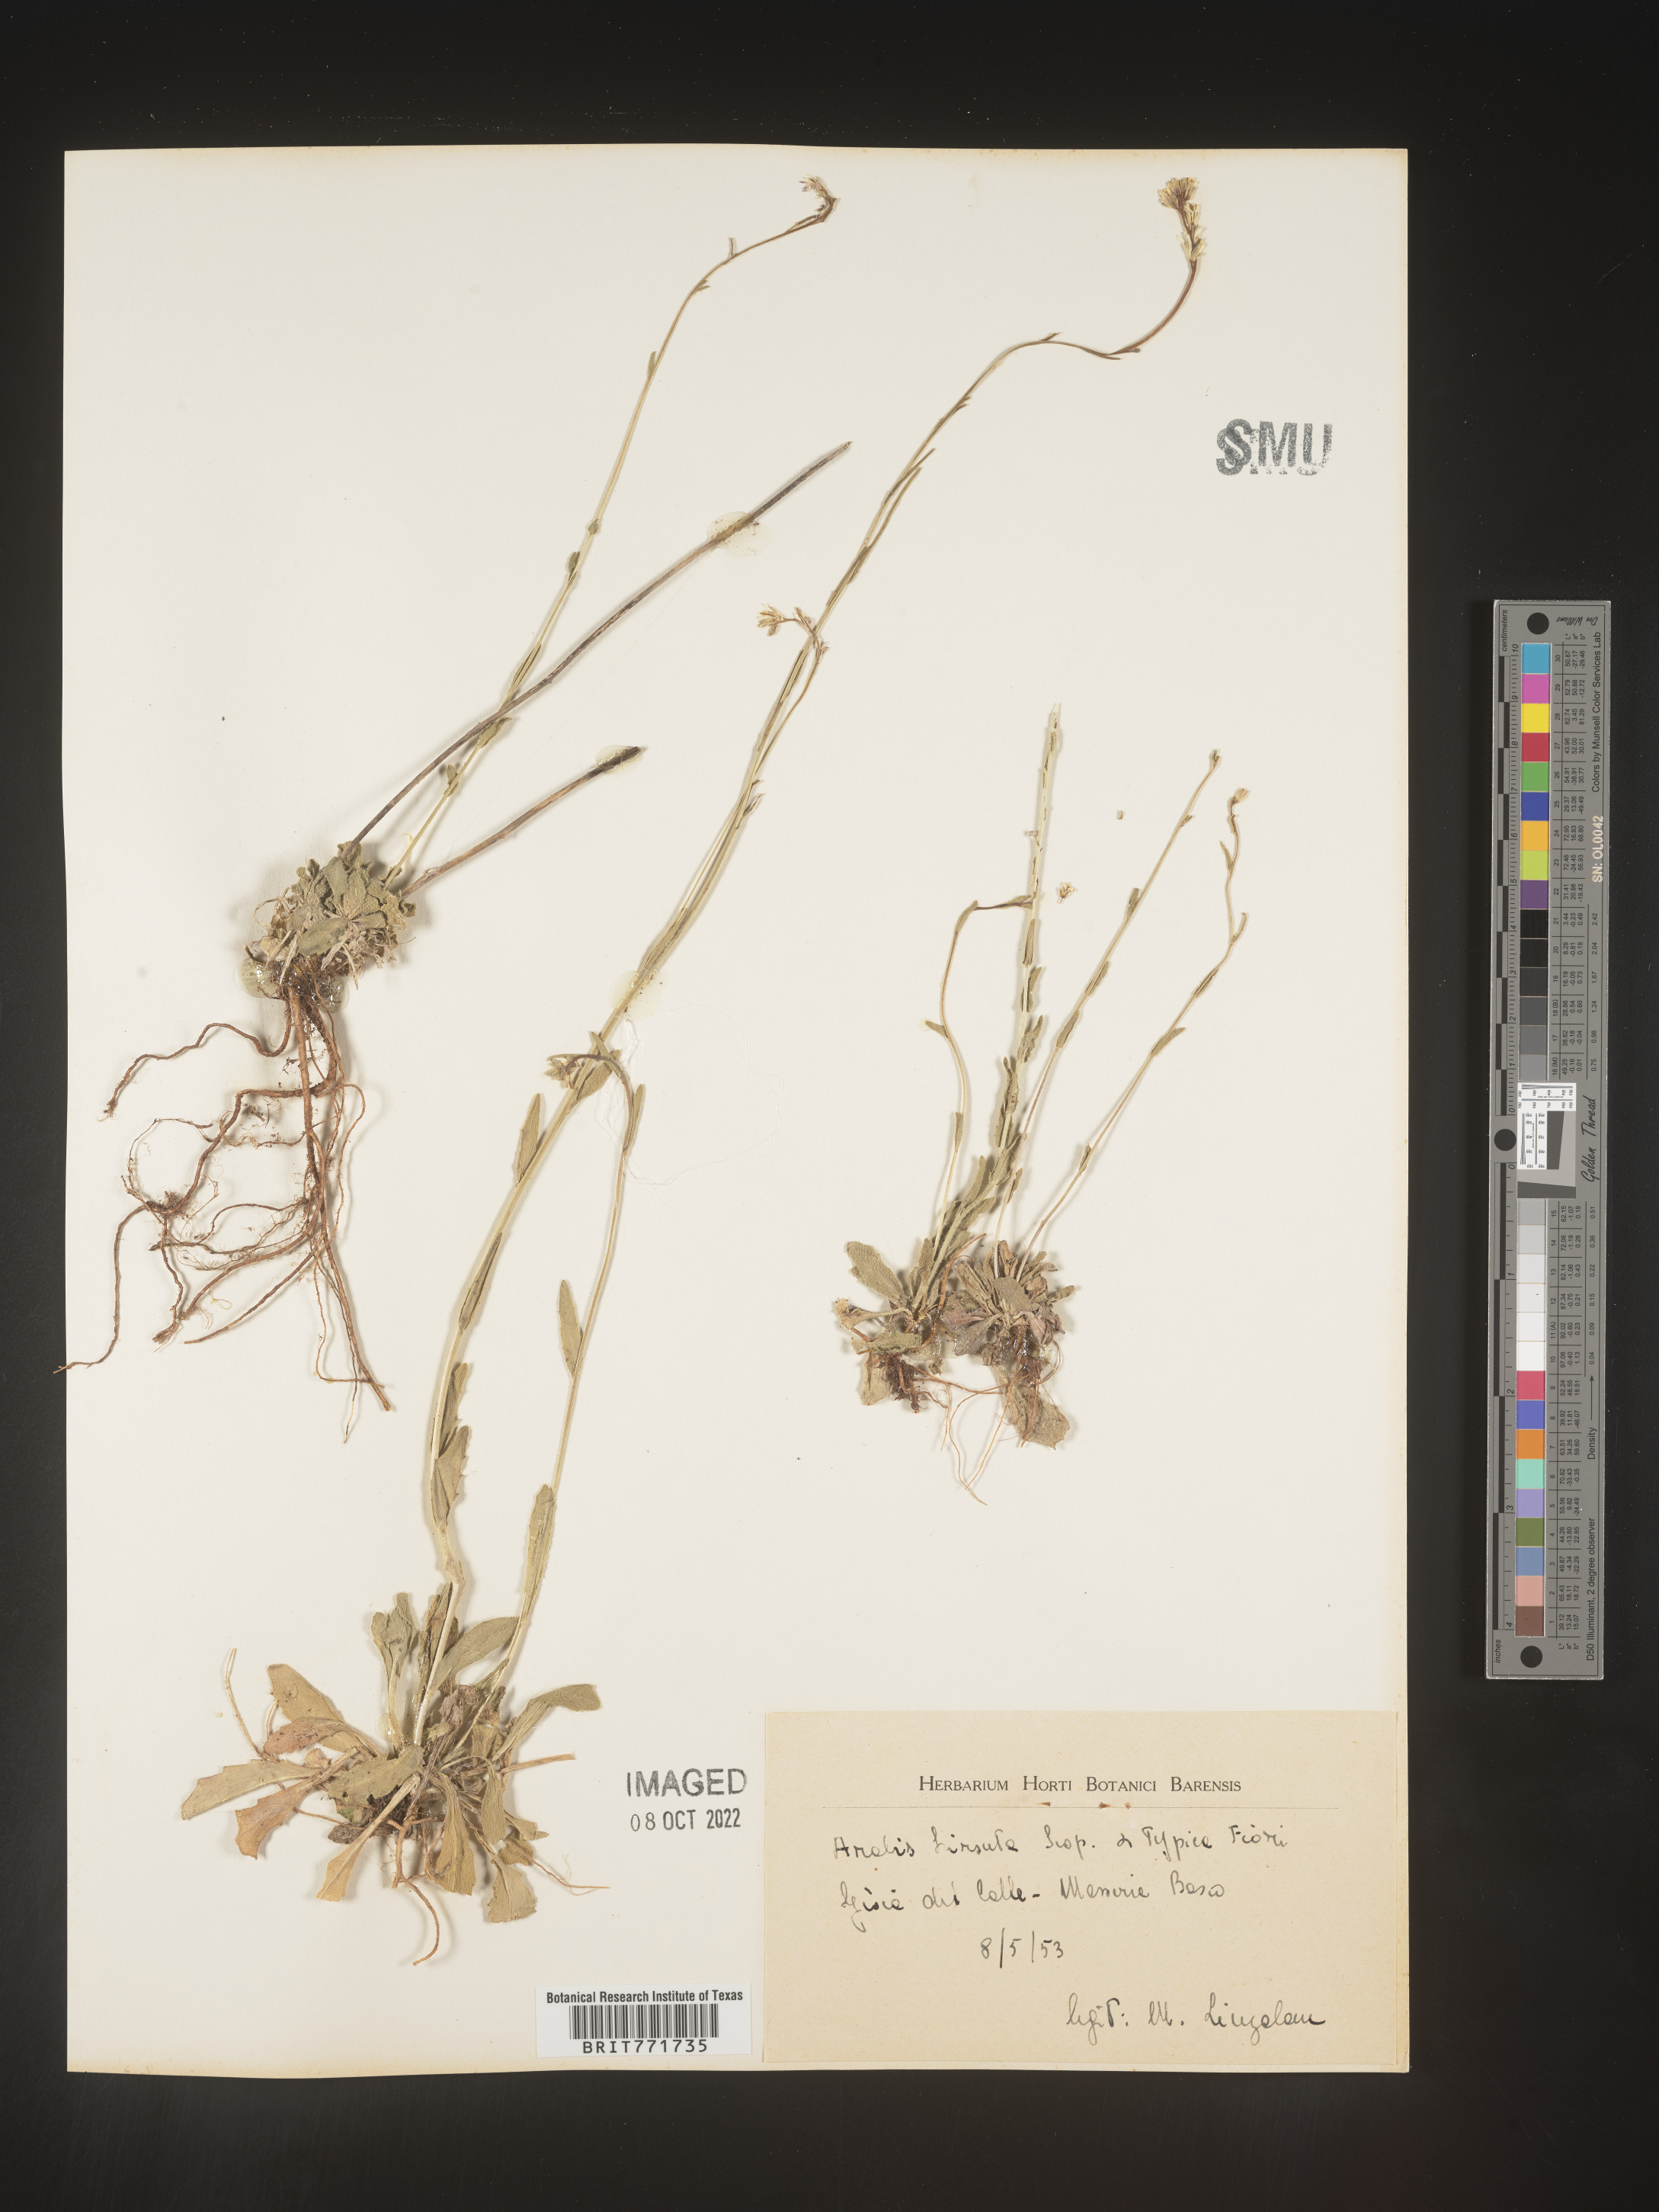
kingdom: Plantae
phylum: Tracheophyta
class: Magnoliopsida
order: Brassicales
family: Brassicaceae
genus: Arabis
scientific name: Arabis
